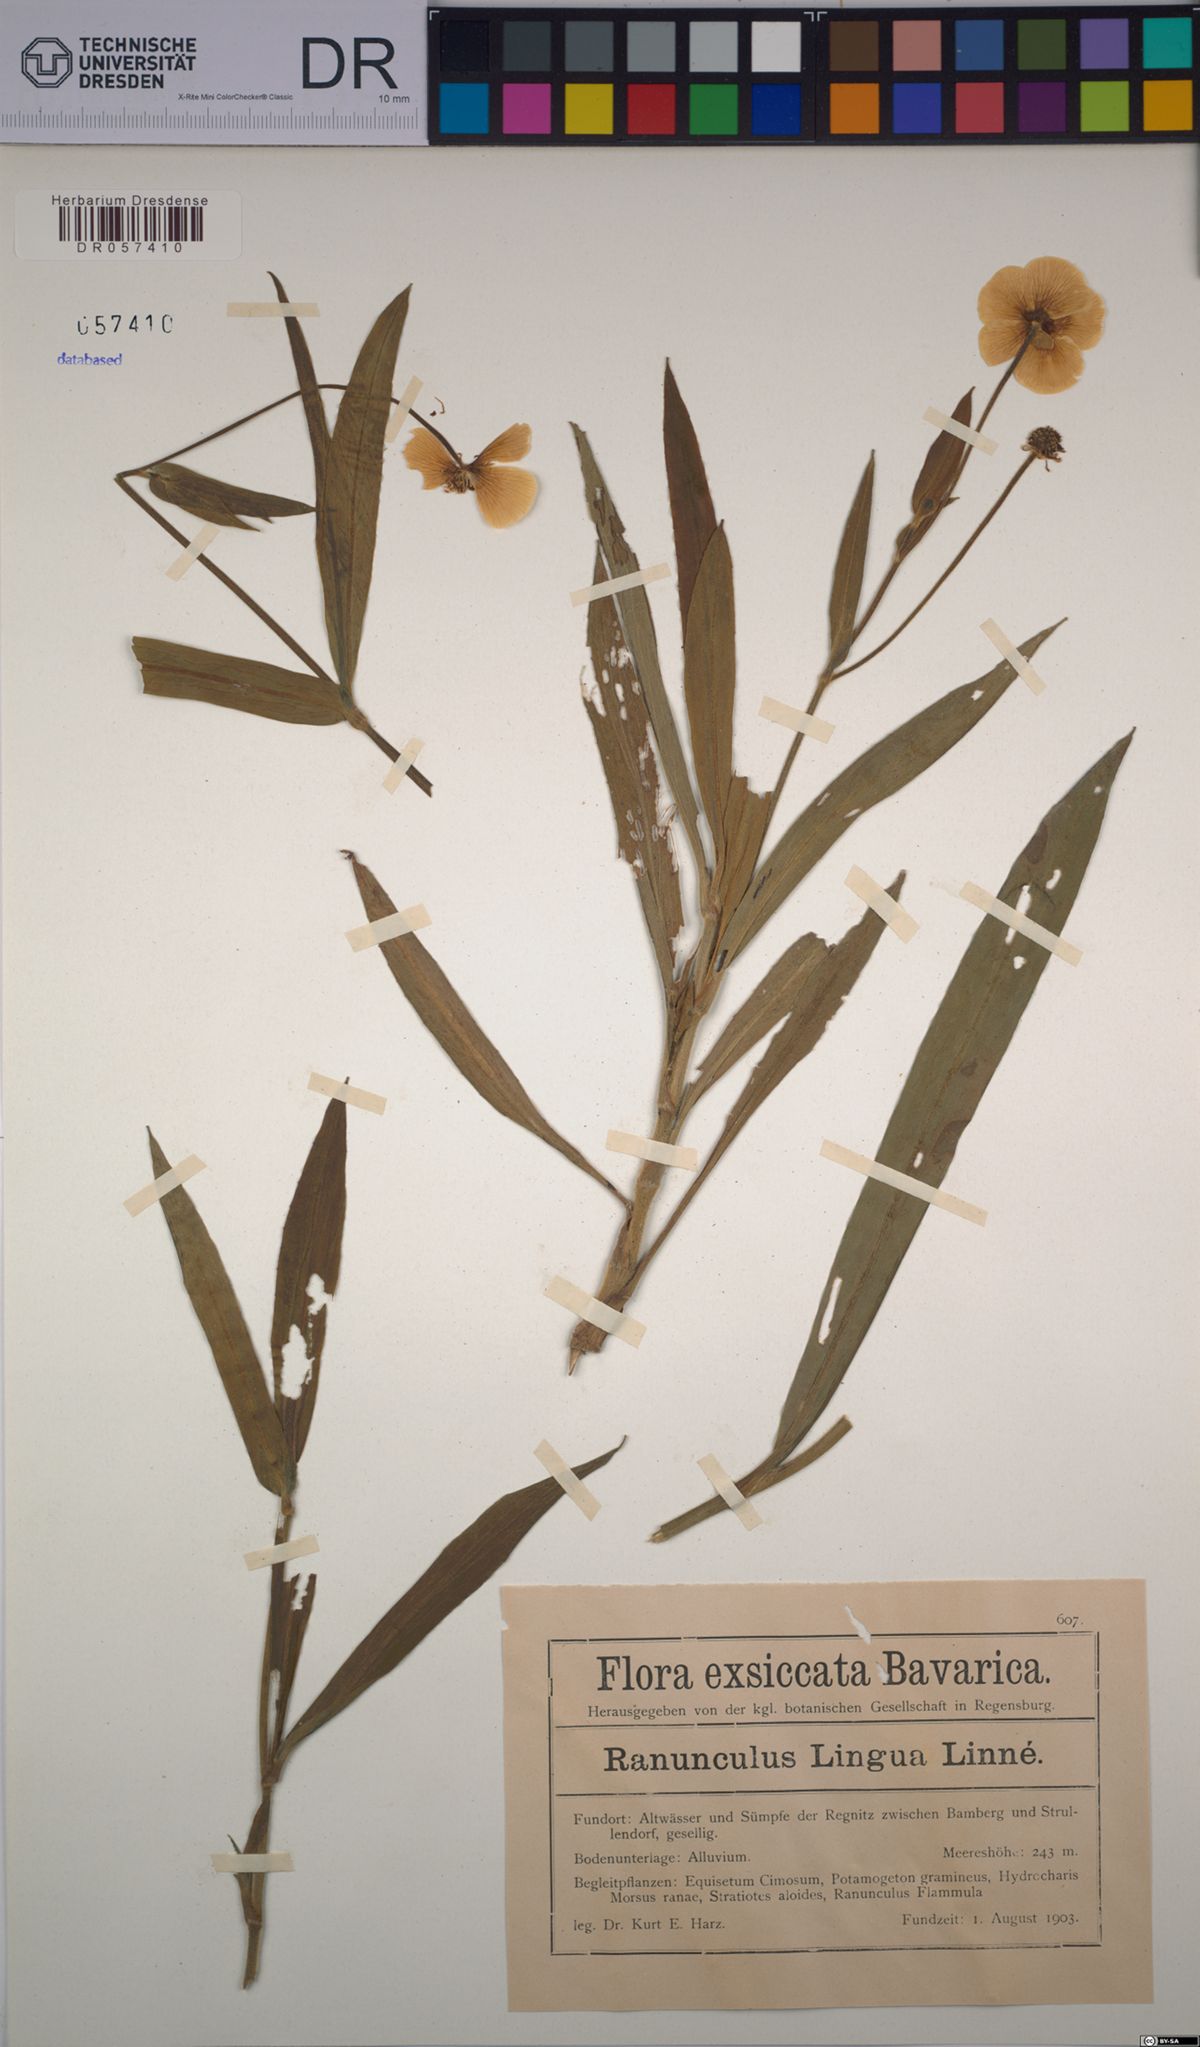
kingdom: Plantae
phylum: Tracheophyta
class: Magnoliopsida
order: Ranunculales
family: Ranunculaceae
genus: Ranunculus
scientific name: Ranunculus lingua
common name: Greater spearwort
